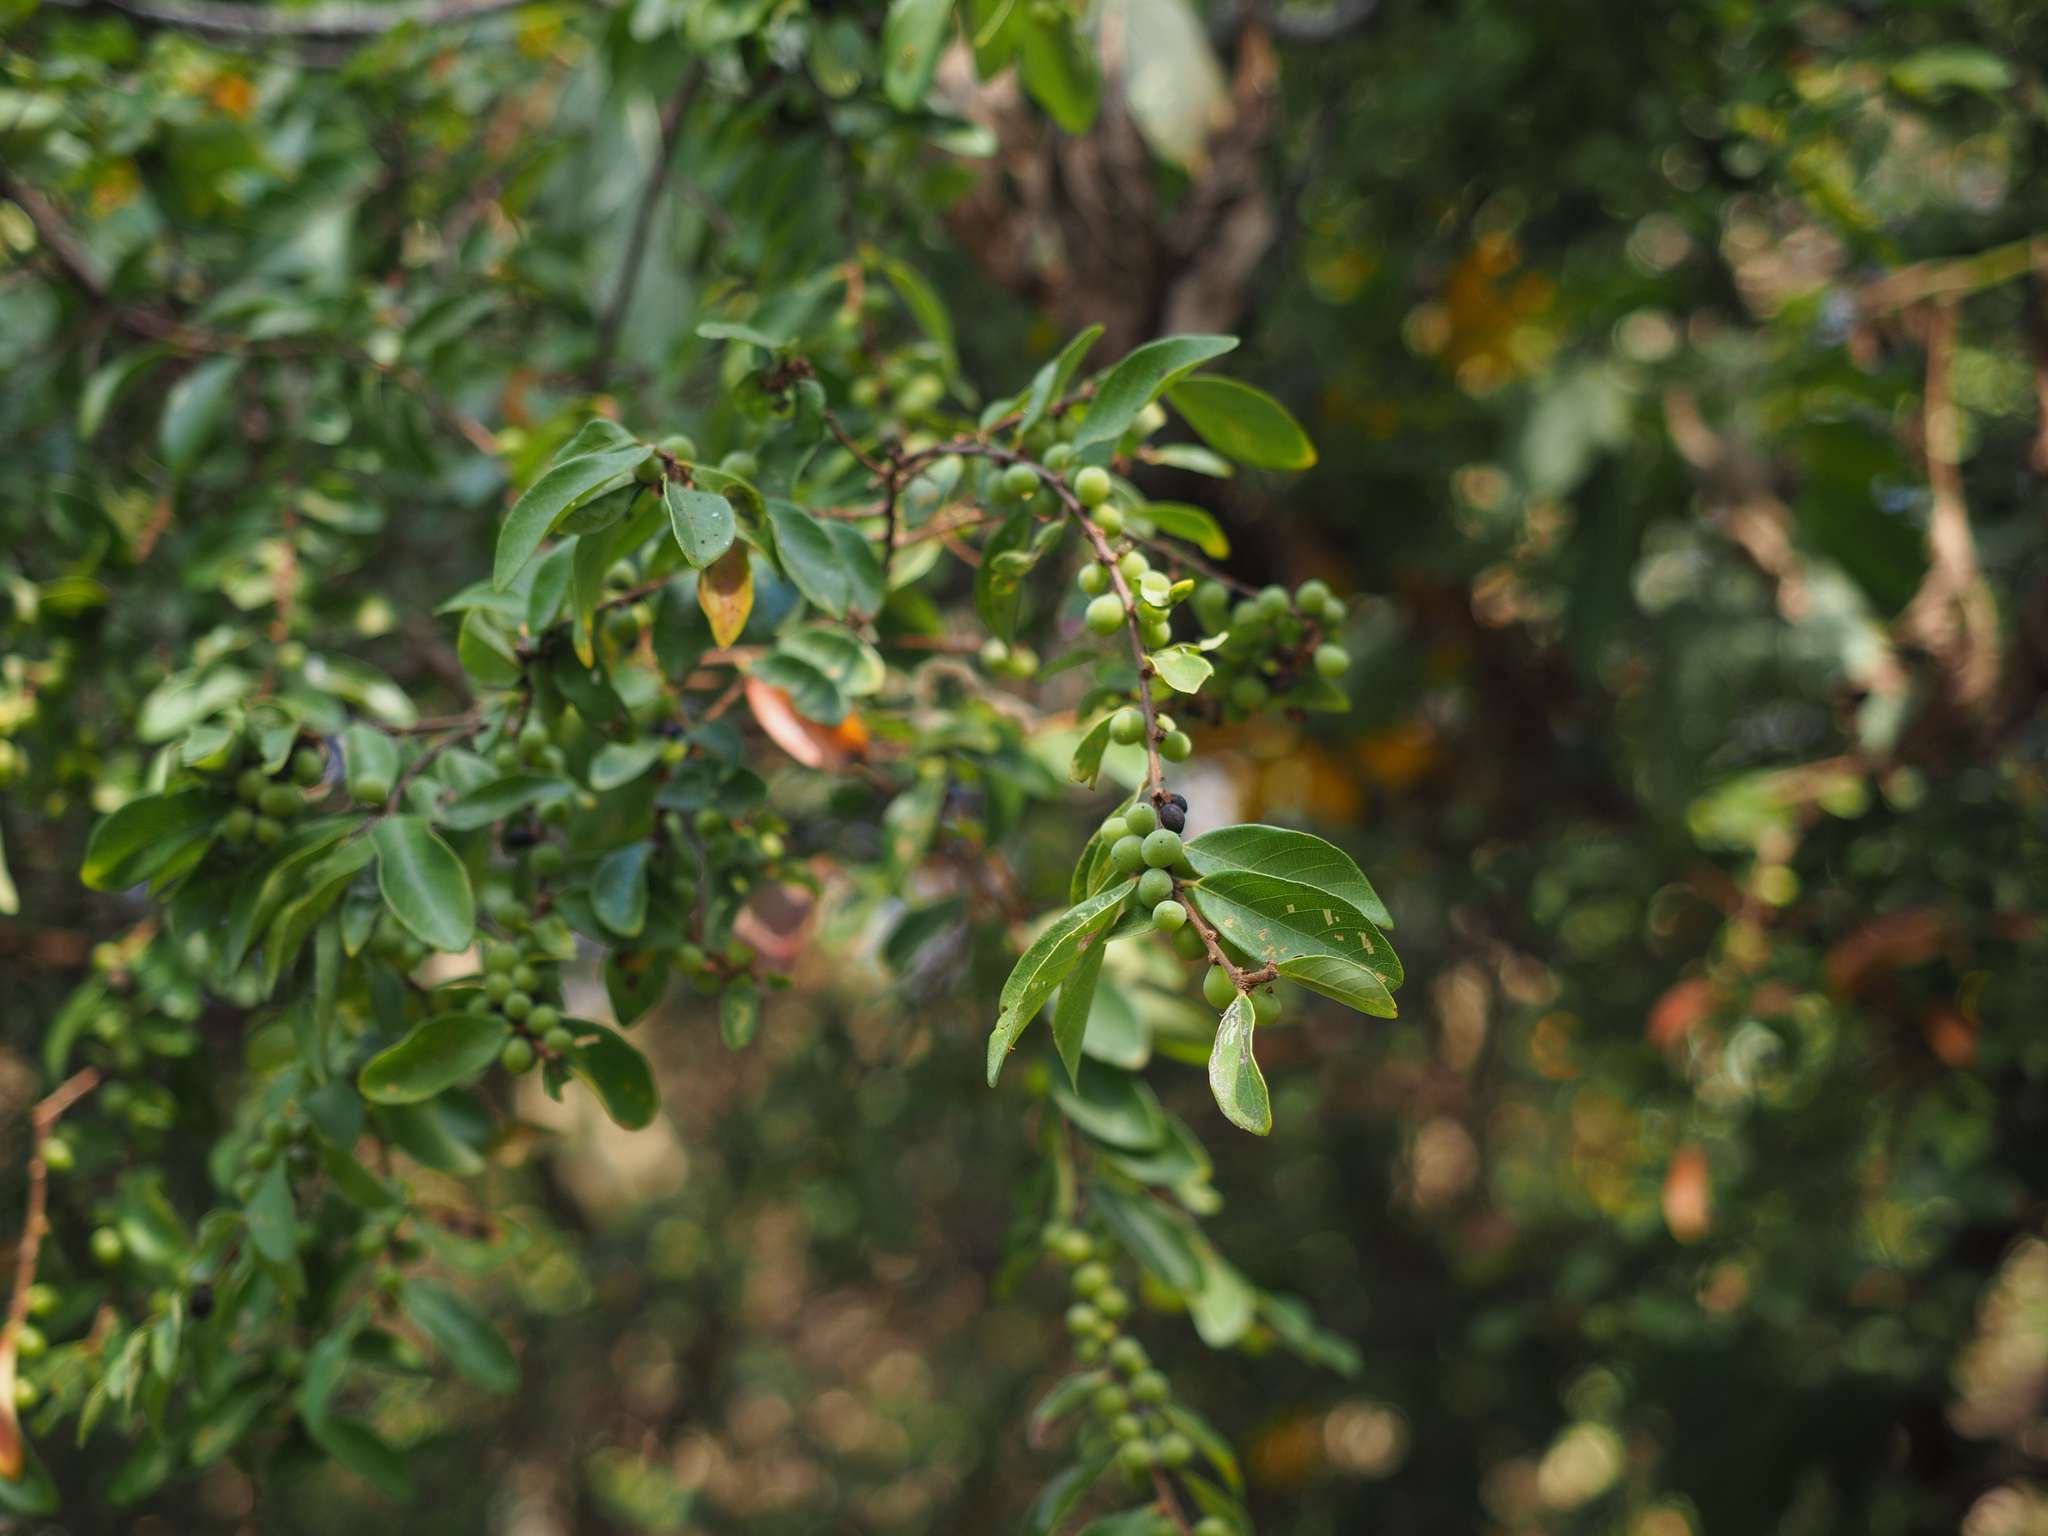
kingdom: Plantae
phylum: Tracheophyta
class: Magnoliopsida
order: Malpighiales
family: Phyllanthaceae
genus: Bridelia
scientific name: Bridelia tomentosa
